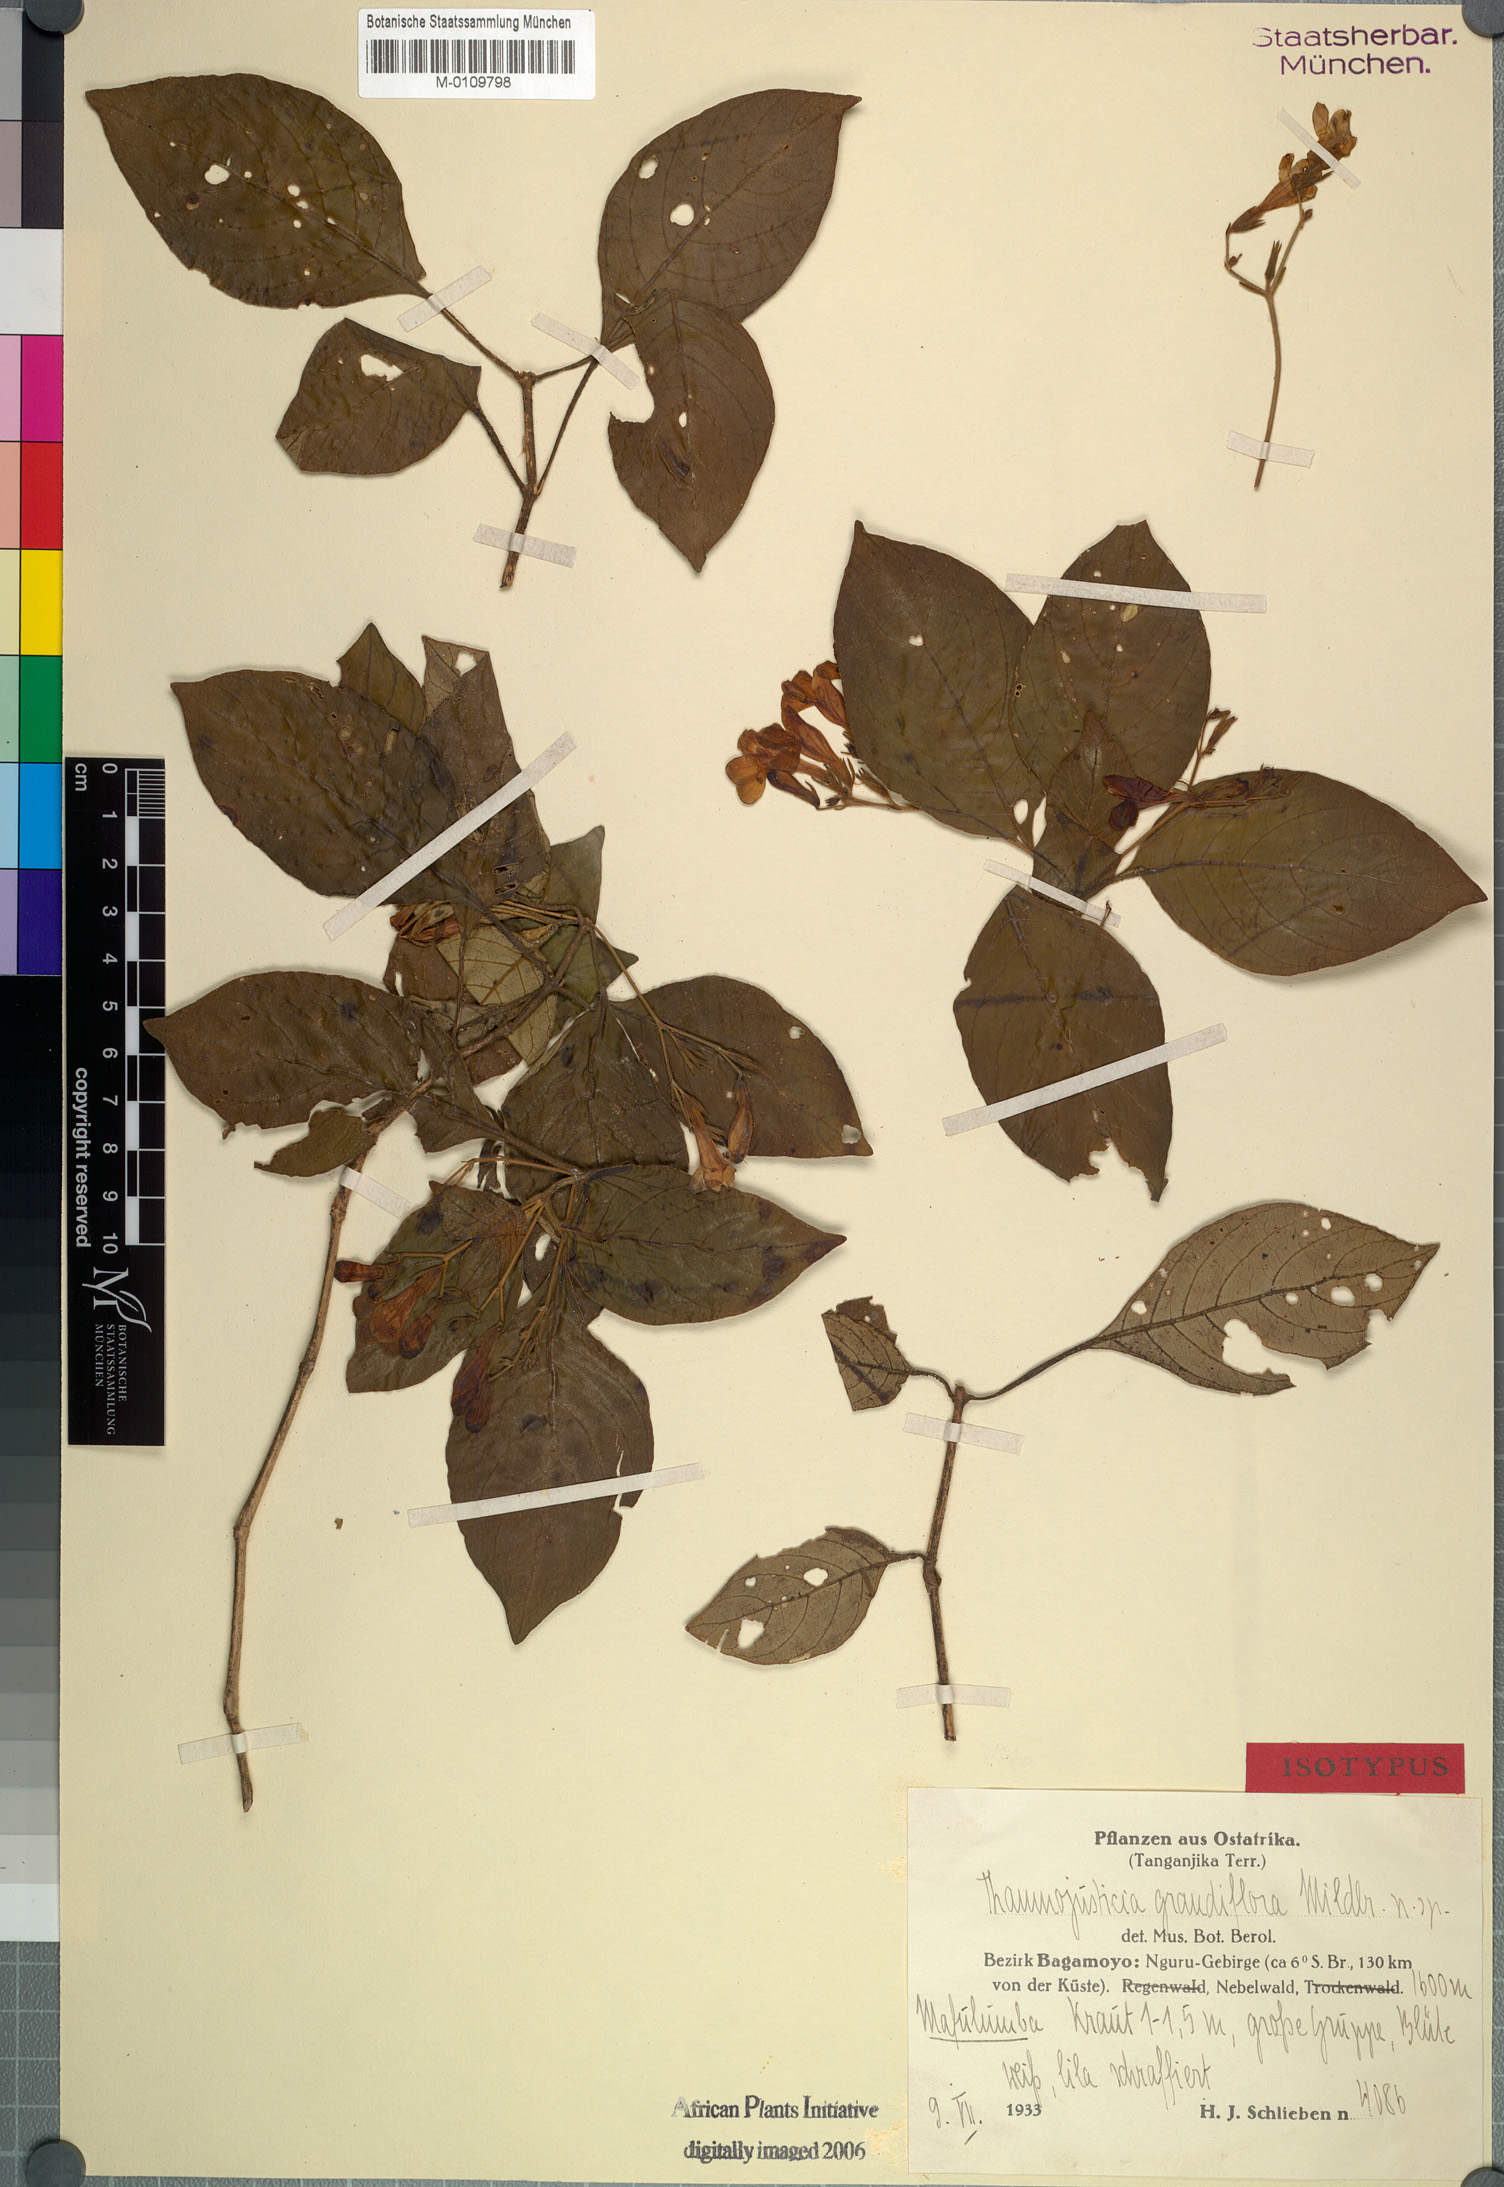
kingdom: Plantae
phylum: Tracheophyta
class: Magnoliopsida
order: Lamiales
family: Acanthaceae
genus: Justicia
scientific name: Justicia asystasioides
